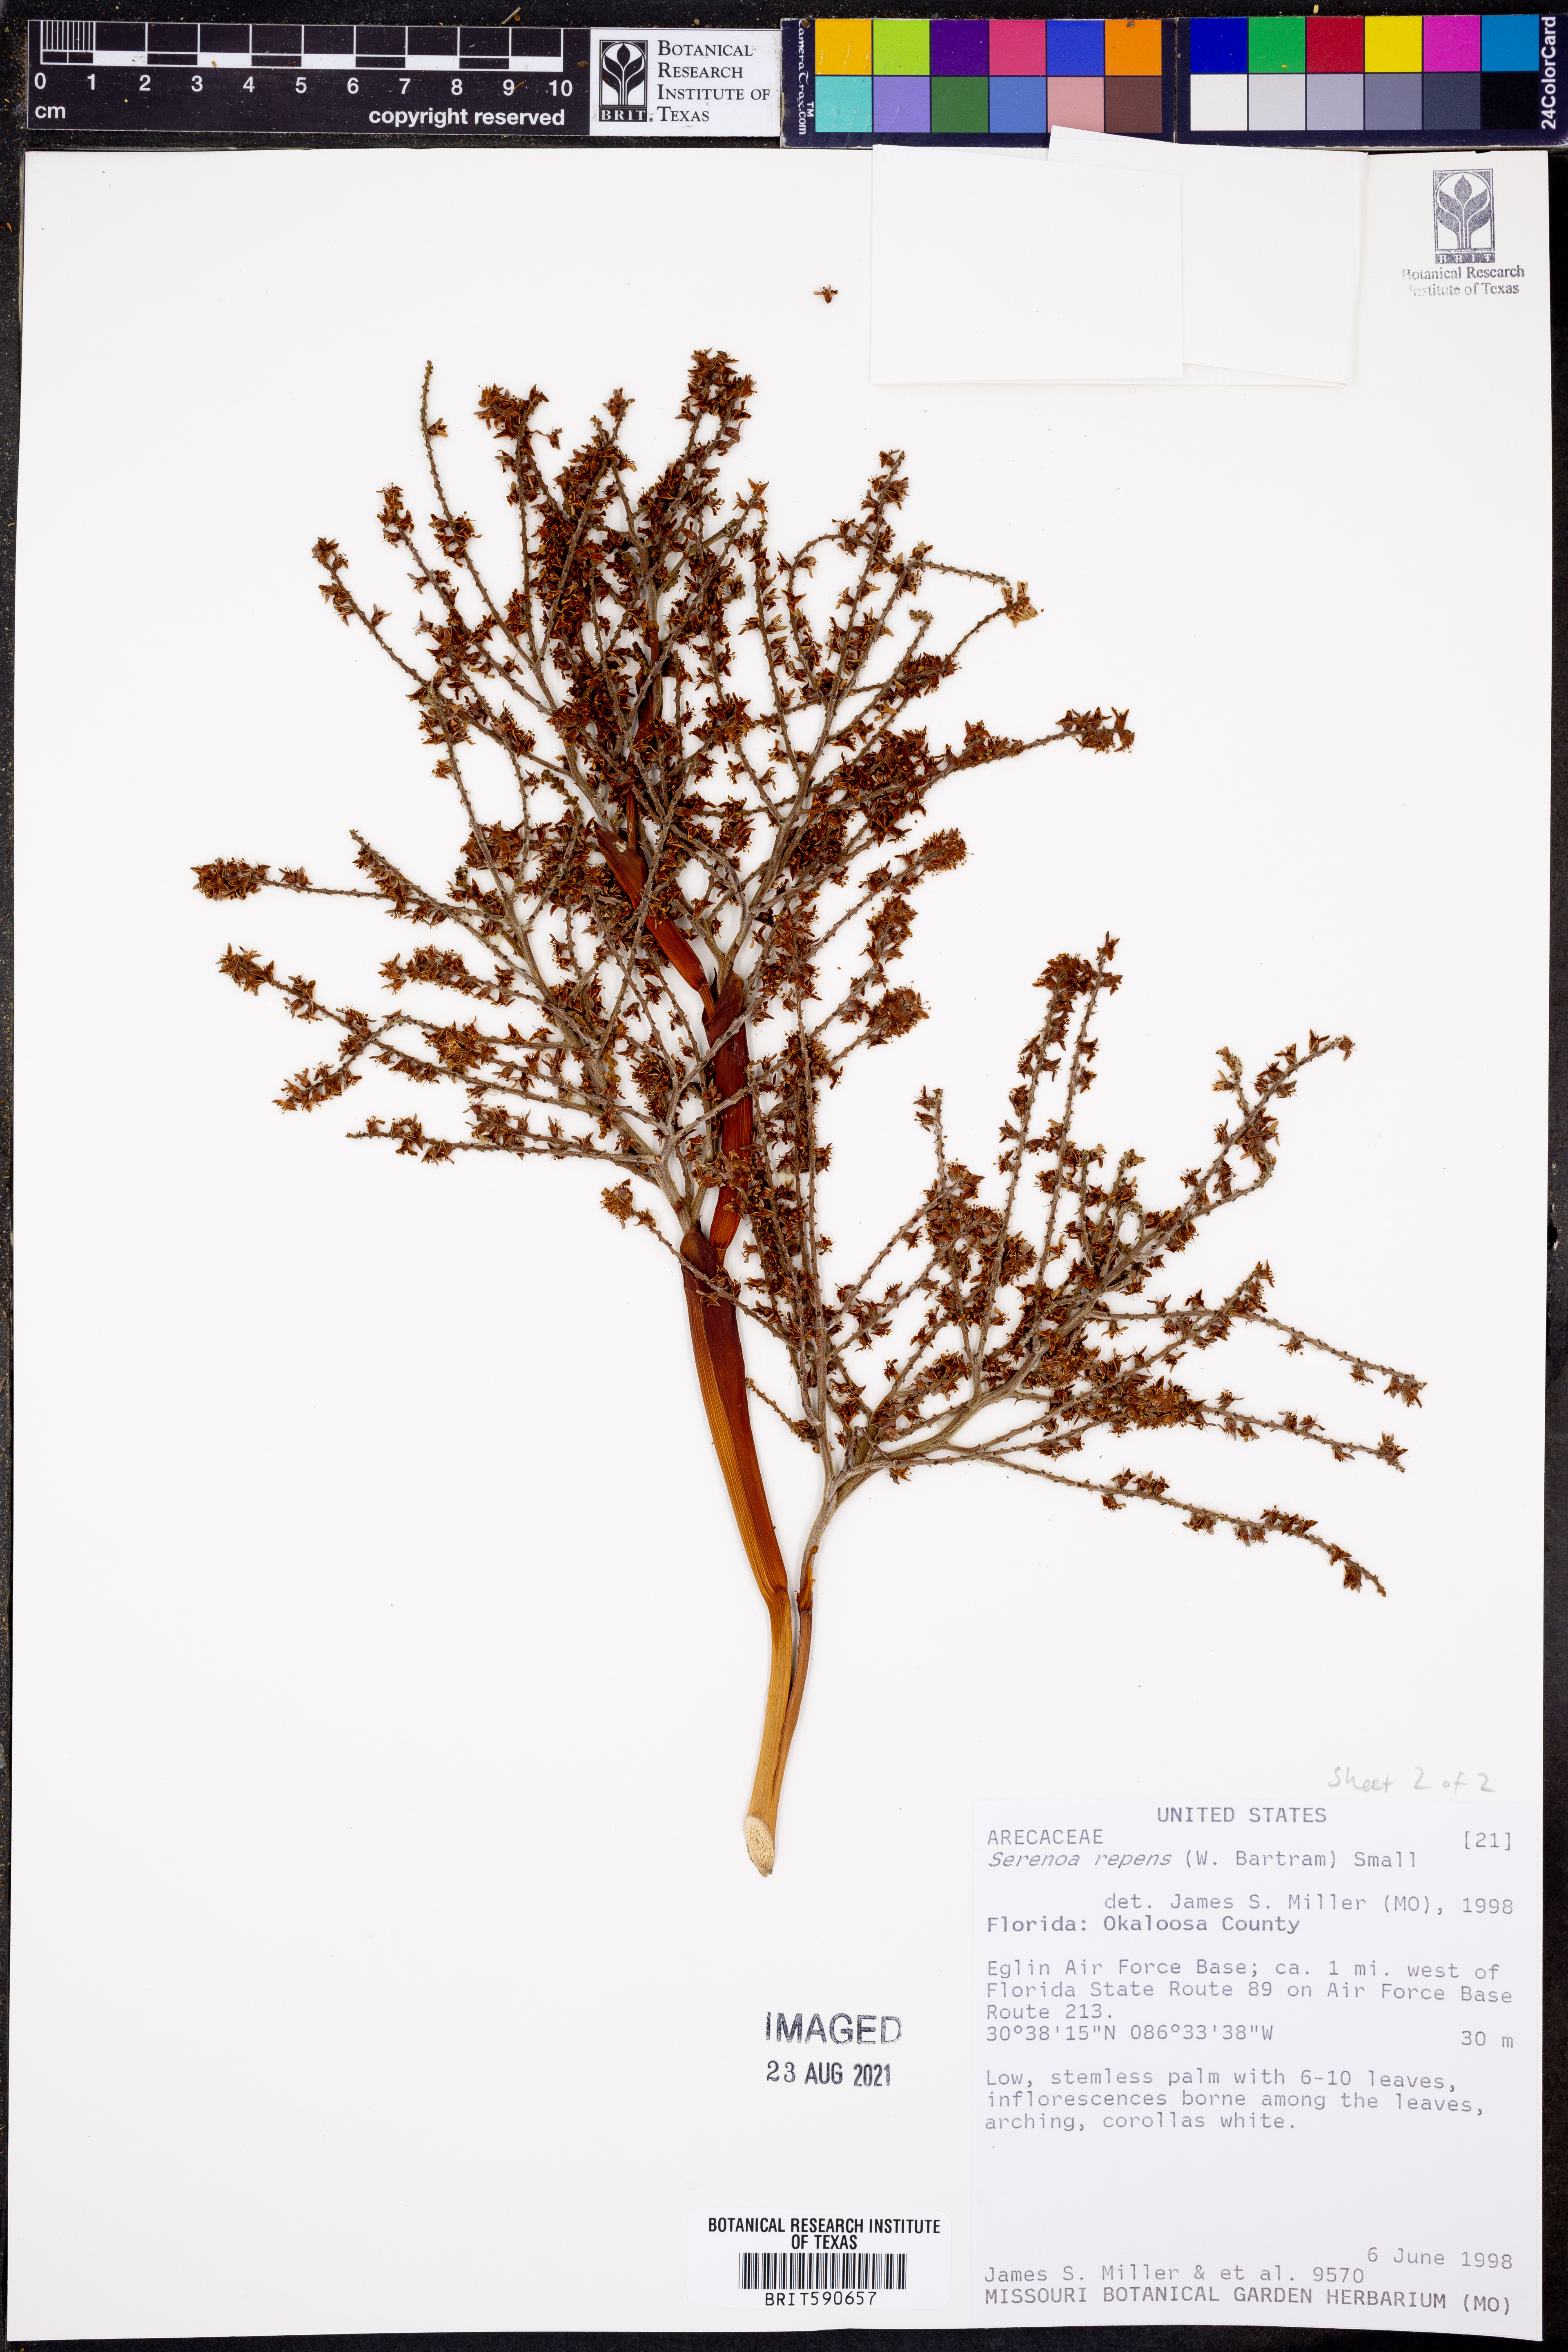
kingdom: Plantae
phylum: Tracheophyta
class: Liliopsida
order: Arecales
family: Arecaceae
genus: Serenoa
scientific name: Serenoa repens
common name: Saw-palmetto
